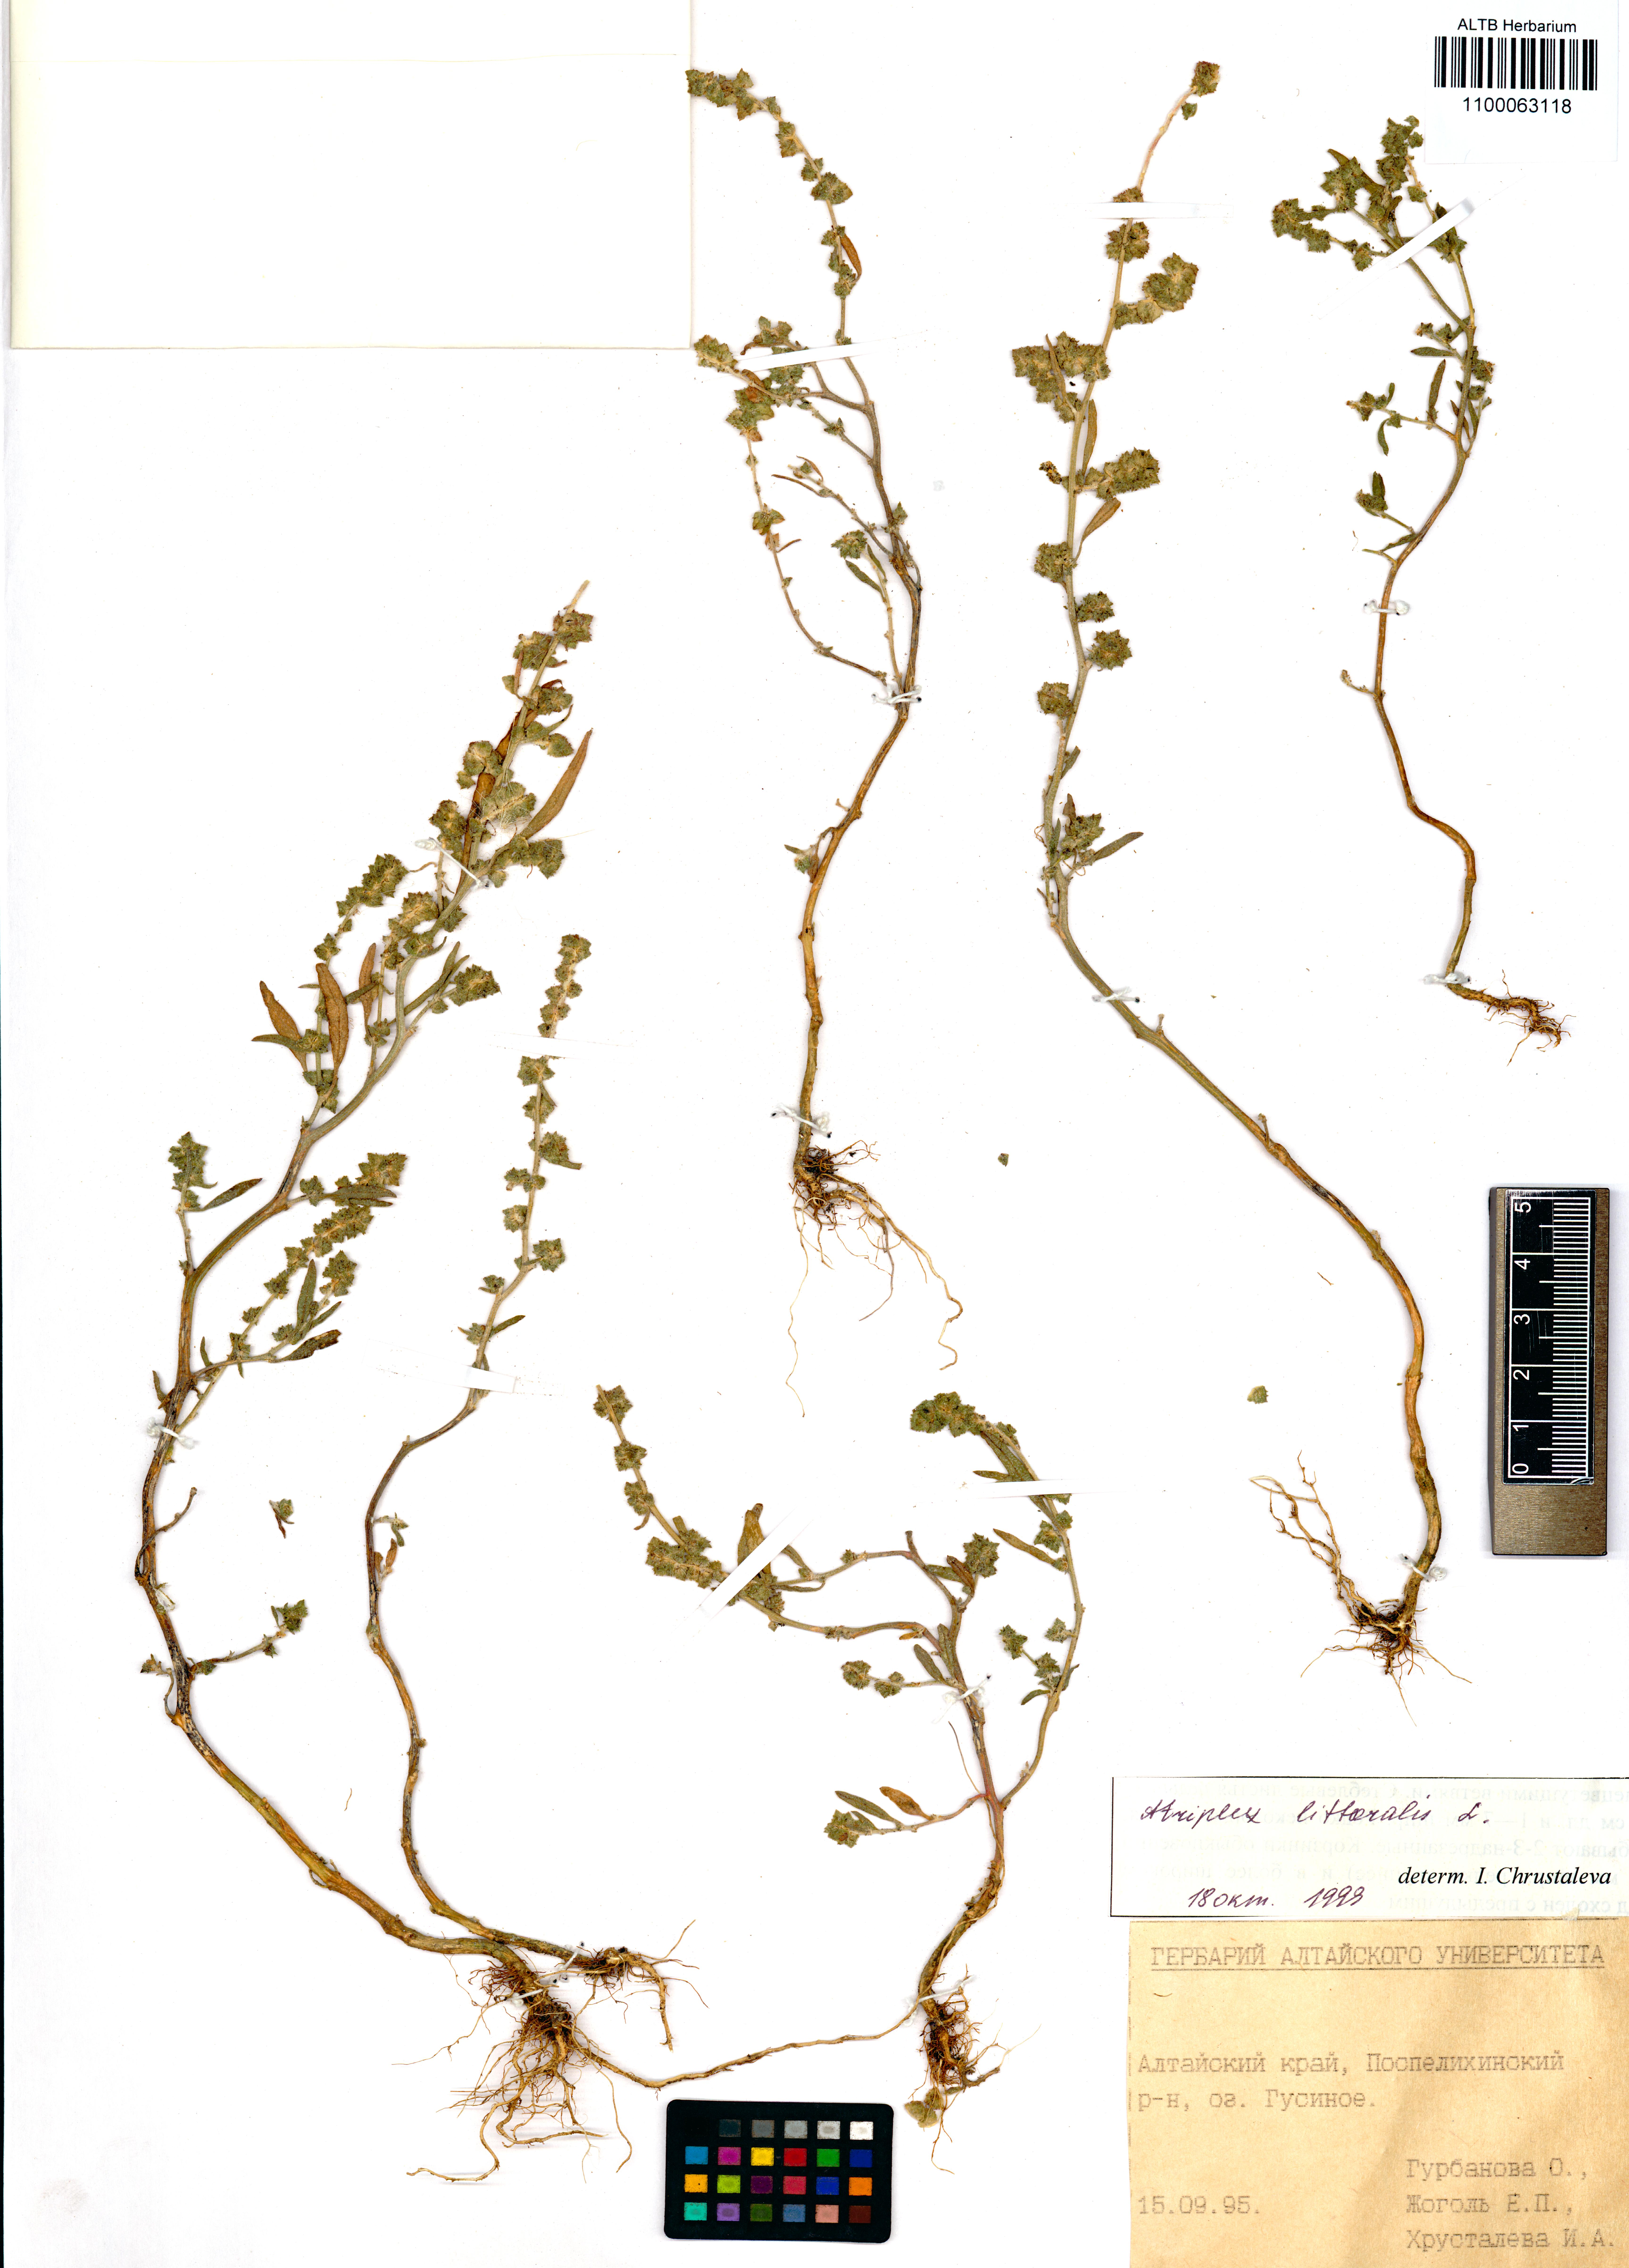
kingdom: Plantae
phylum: Tracheophyta
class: Magnoliopsida
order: Caryophyllales
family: Amaranthaceae
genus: Atriplex
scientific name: Atriplex littoralis
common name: Grass-leaved orache
